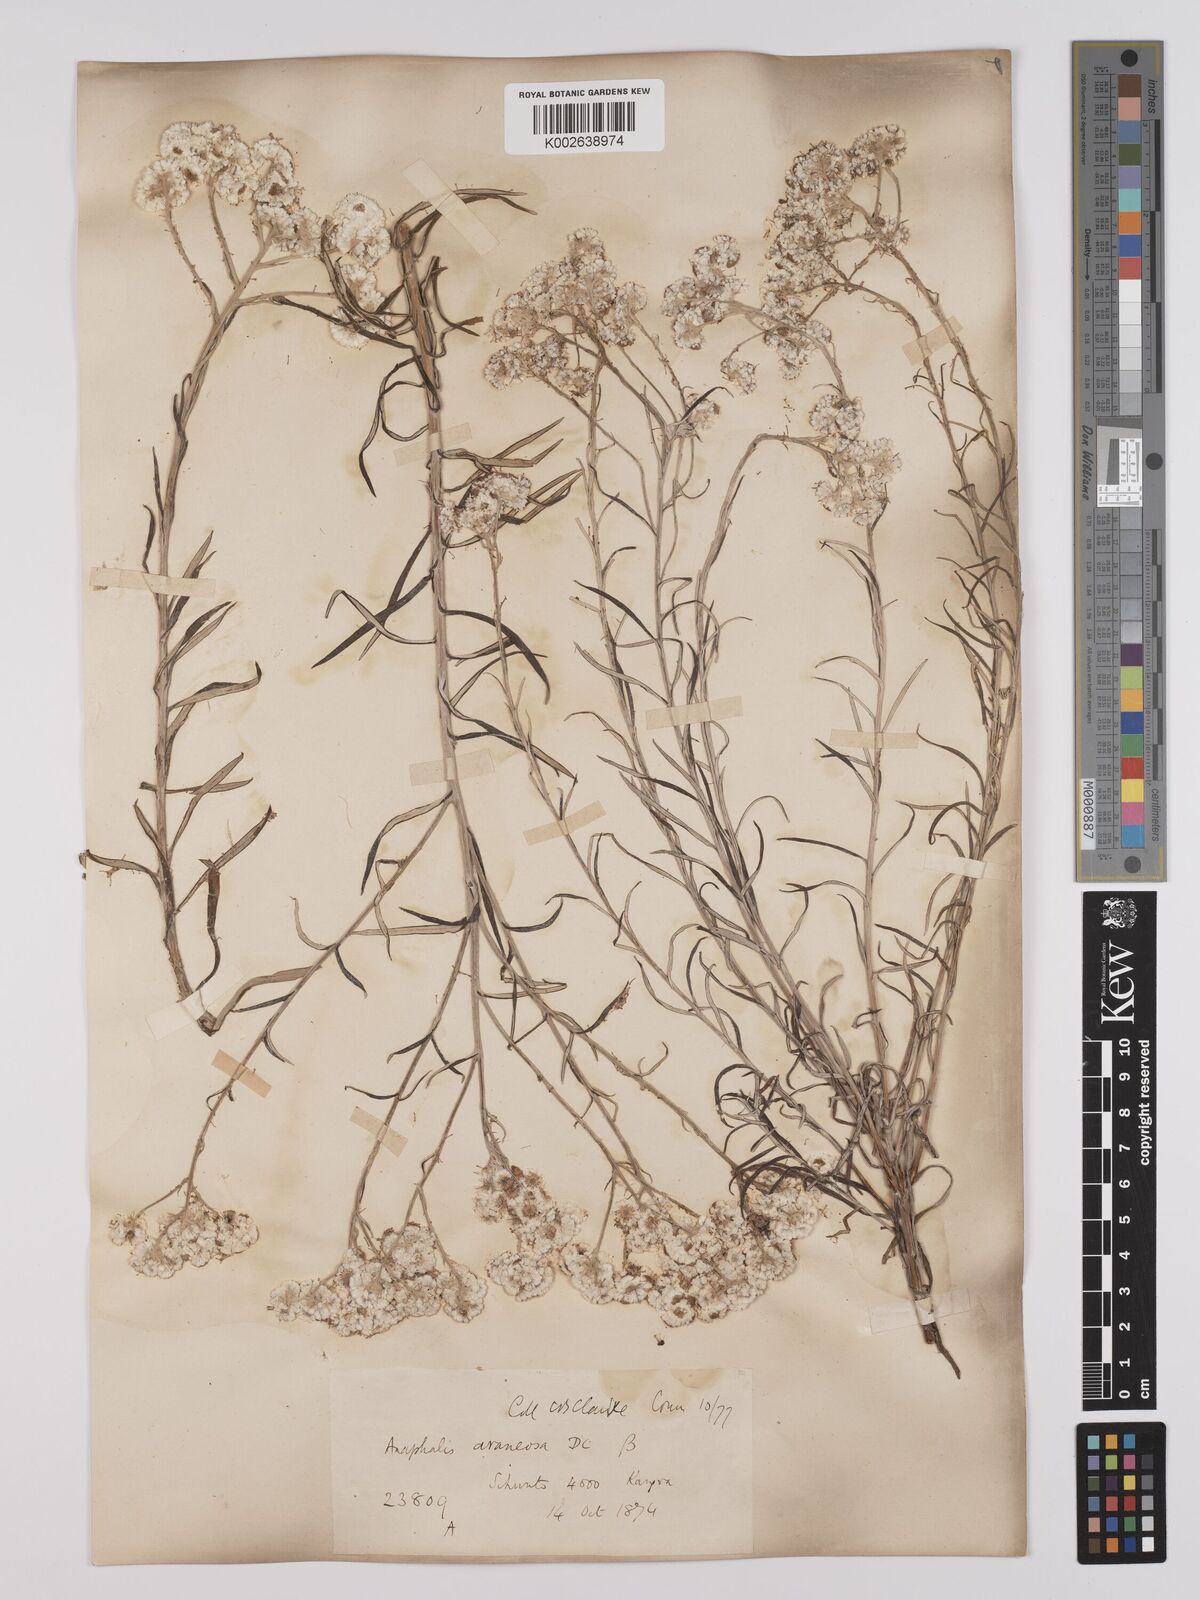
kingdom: Plantae
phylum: Tracheophyta
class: Magnoliopsida
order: Asterales
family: Asteraceae
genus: Anaphalis
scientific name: Anaphalis busua
